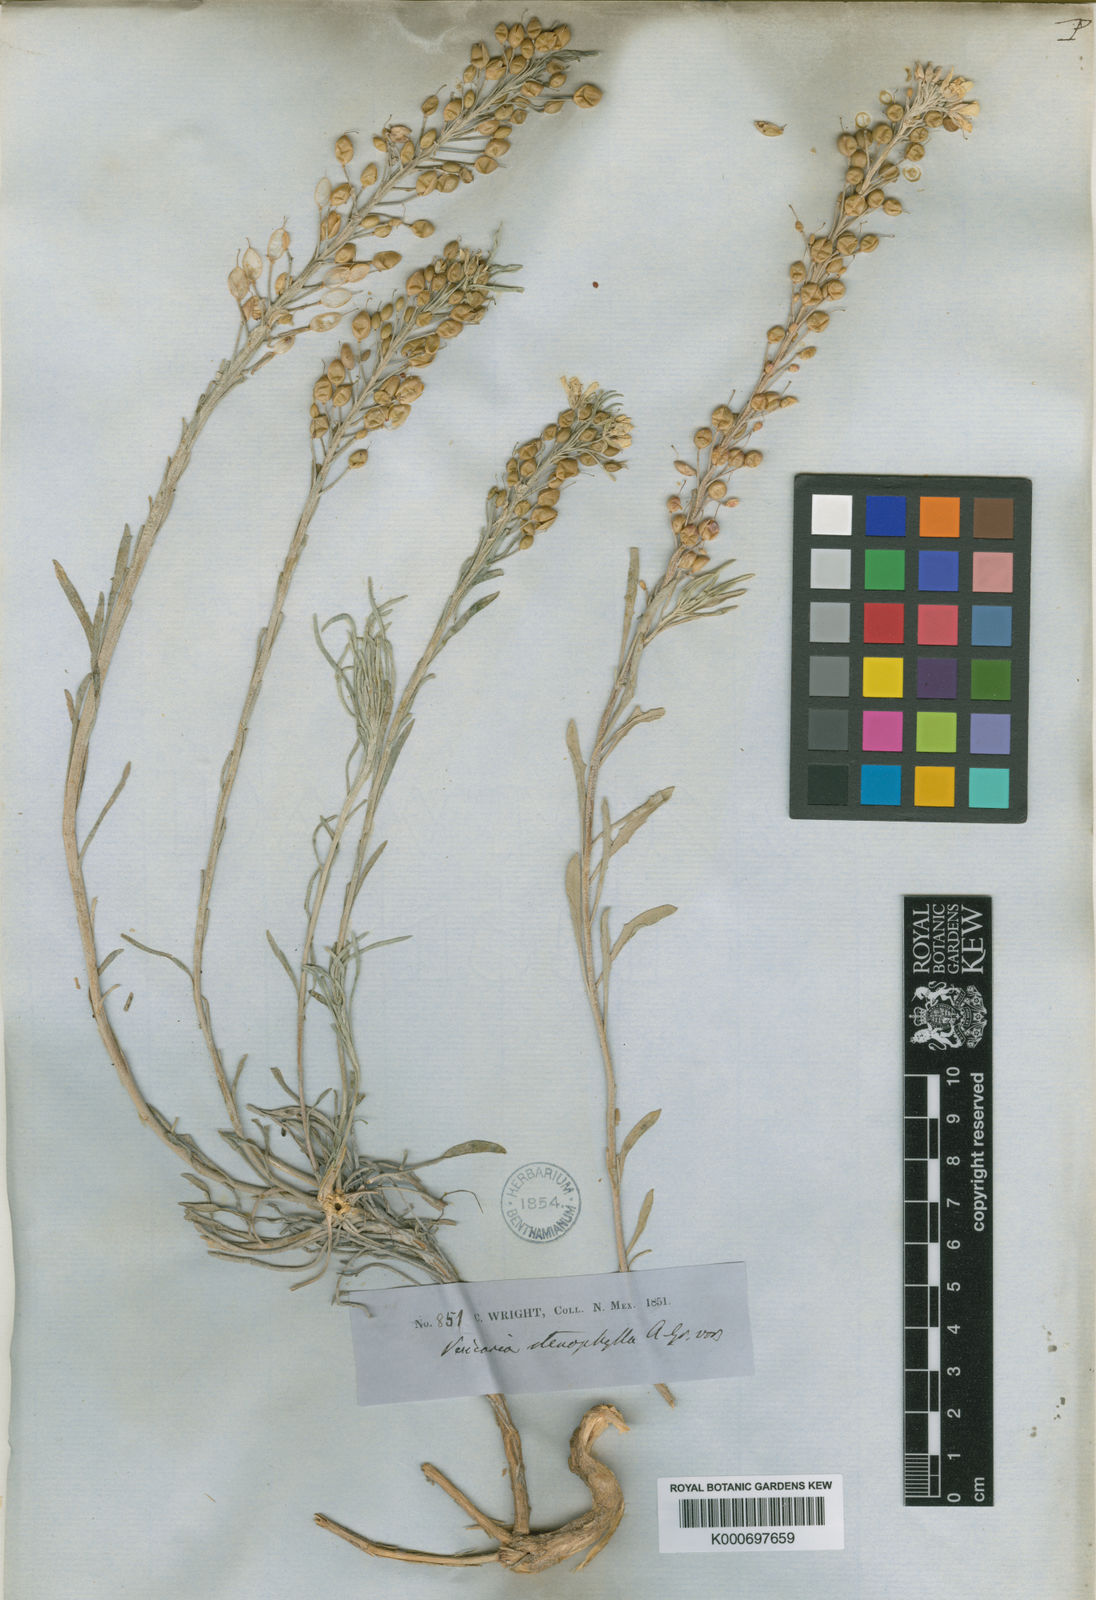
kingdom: Plantae
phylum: Tracheophyta
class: Magnoliopsida
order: Brassicales
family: Brassicaceae
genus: Physaria
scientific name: Physaria fendleri
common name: Fendler's bladderpod
